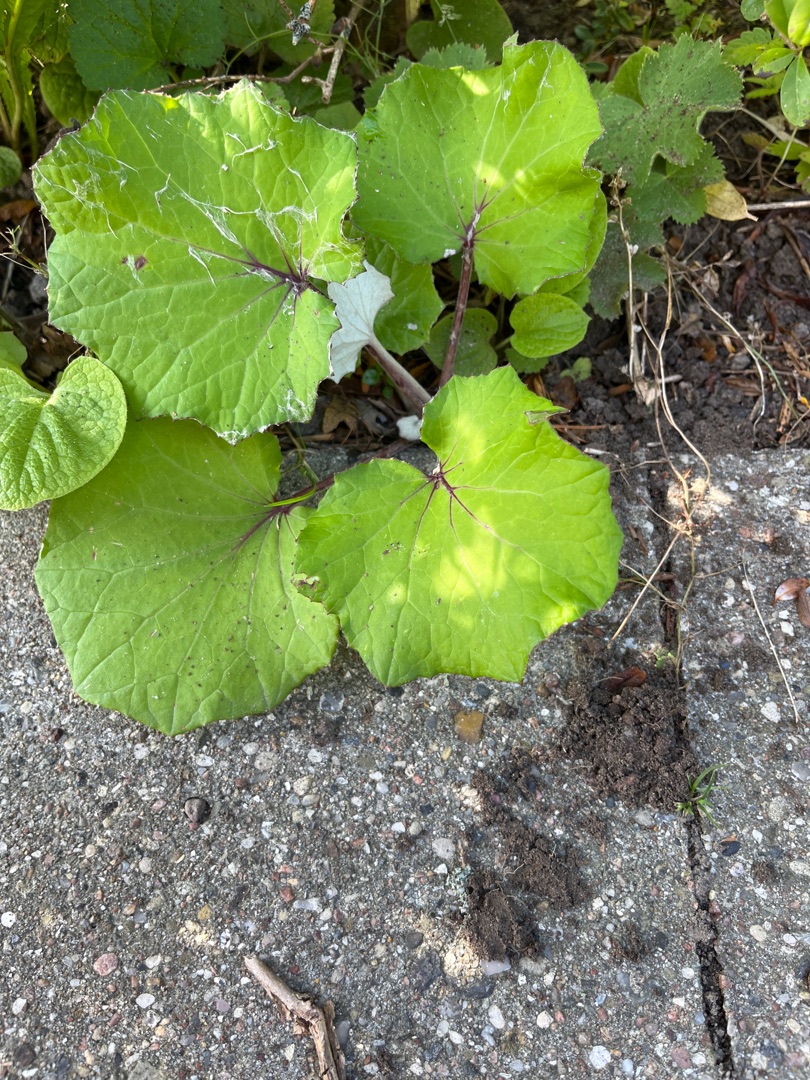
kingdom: Plantae
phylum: Tracheophyta
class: Magnoliopsida
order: Asterales
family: Asteraceae
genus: Tussilago
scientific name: Tussilago farfara
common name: Følfod
